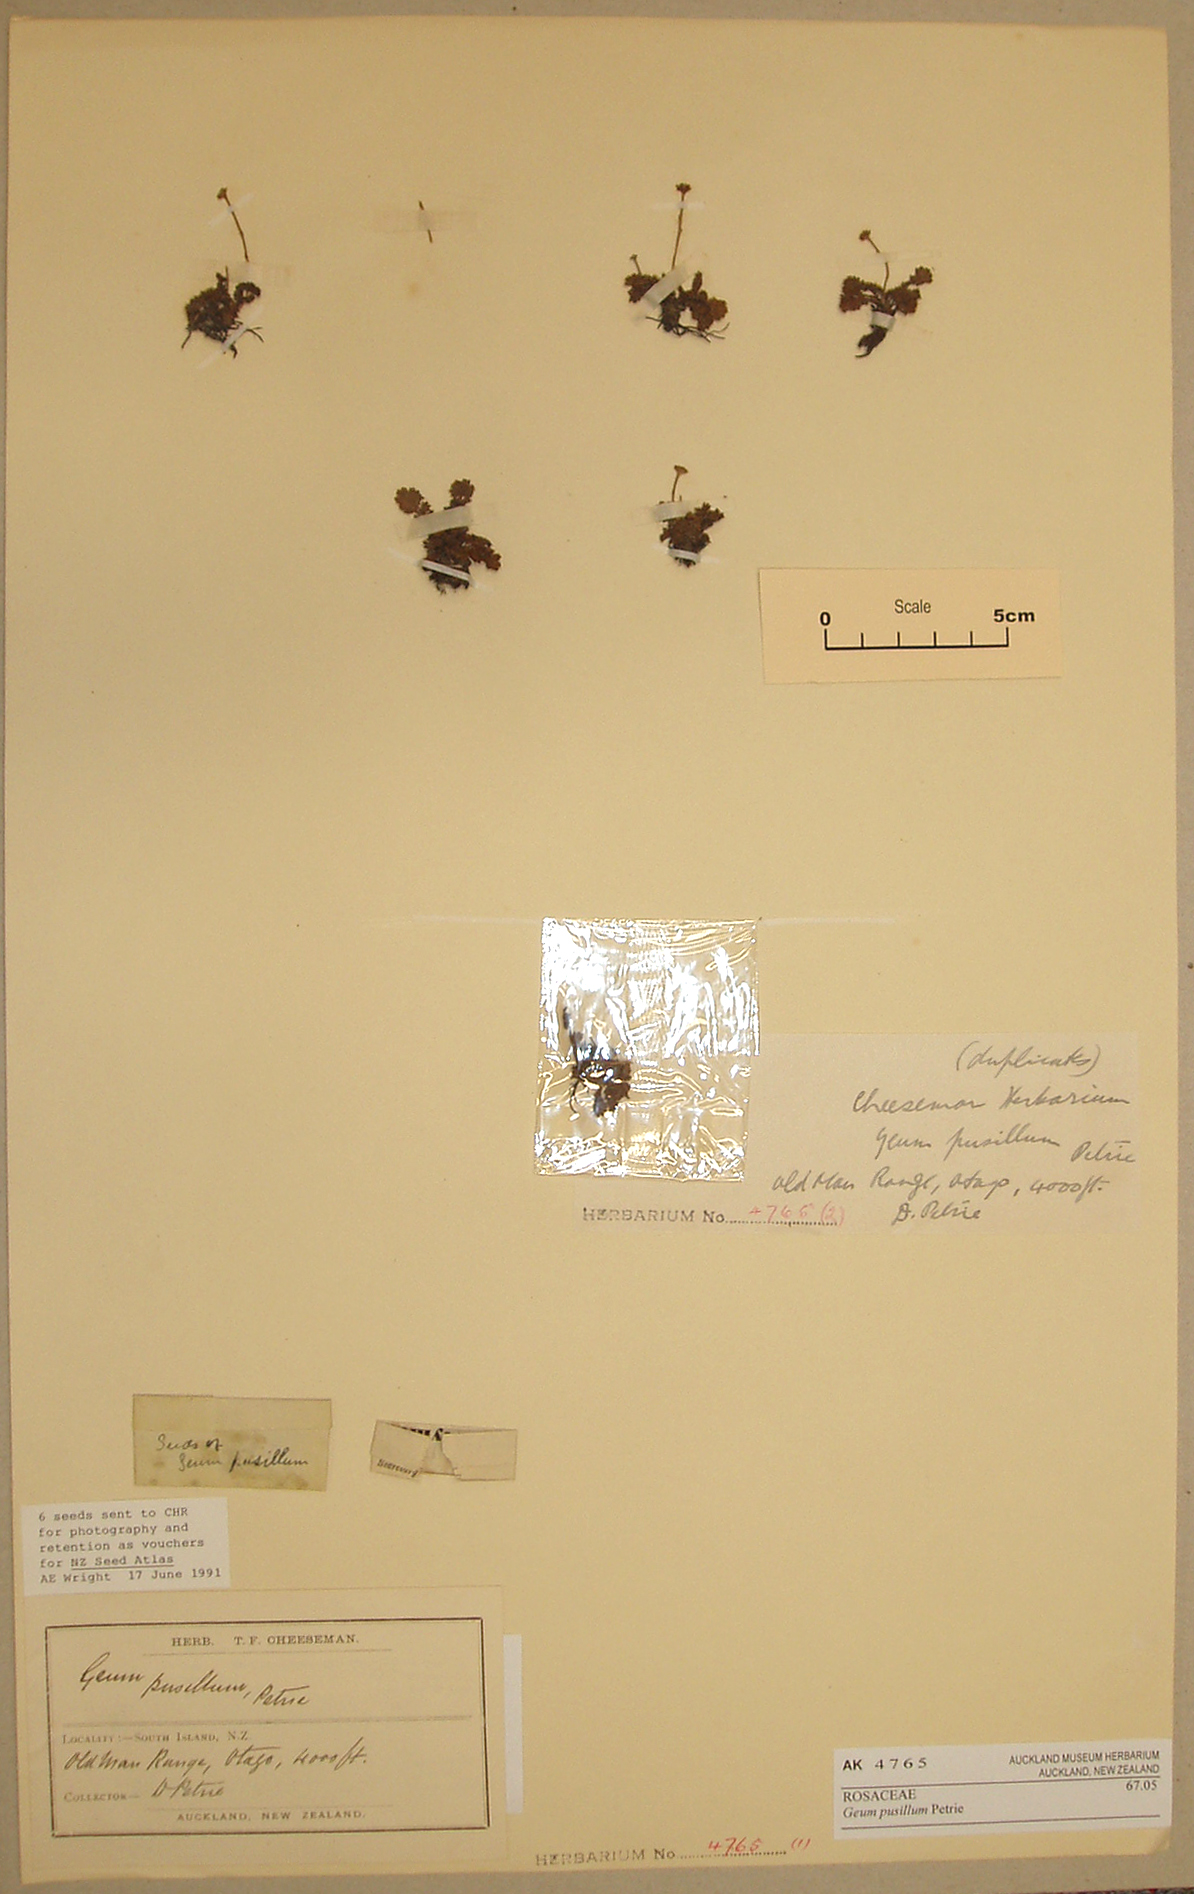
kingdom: Plantae
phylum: Tracheophyta
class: Magnoliopsida
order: Rosales
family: Rosaceae
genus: Geum
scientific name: Geum pusillum
